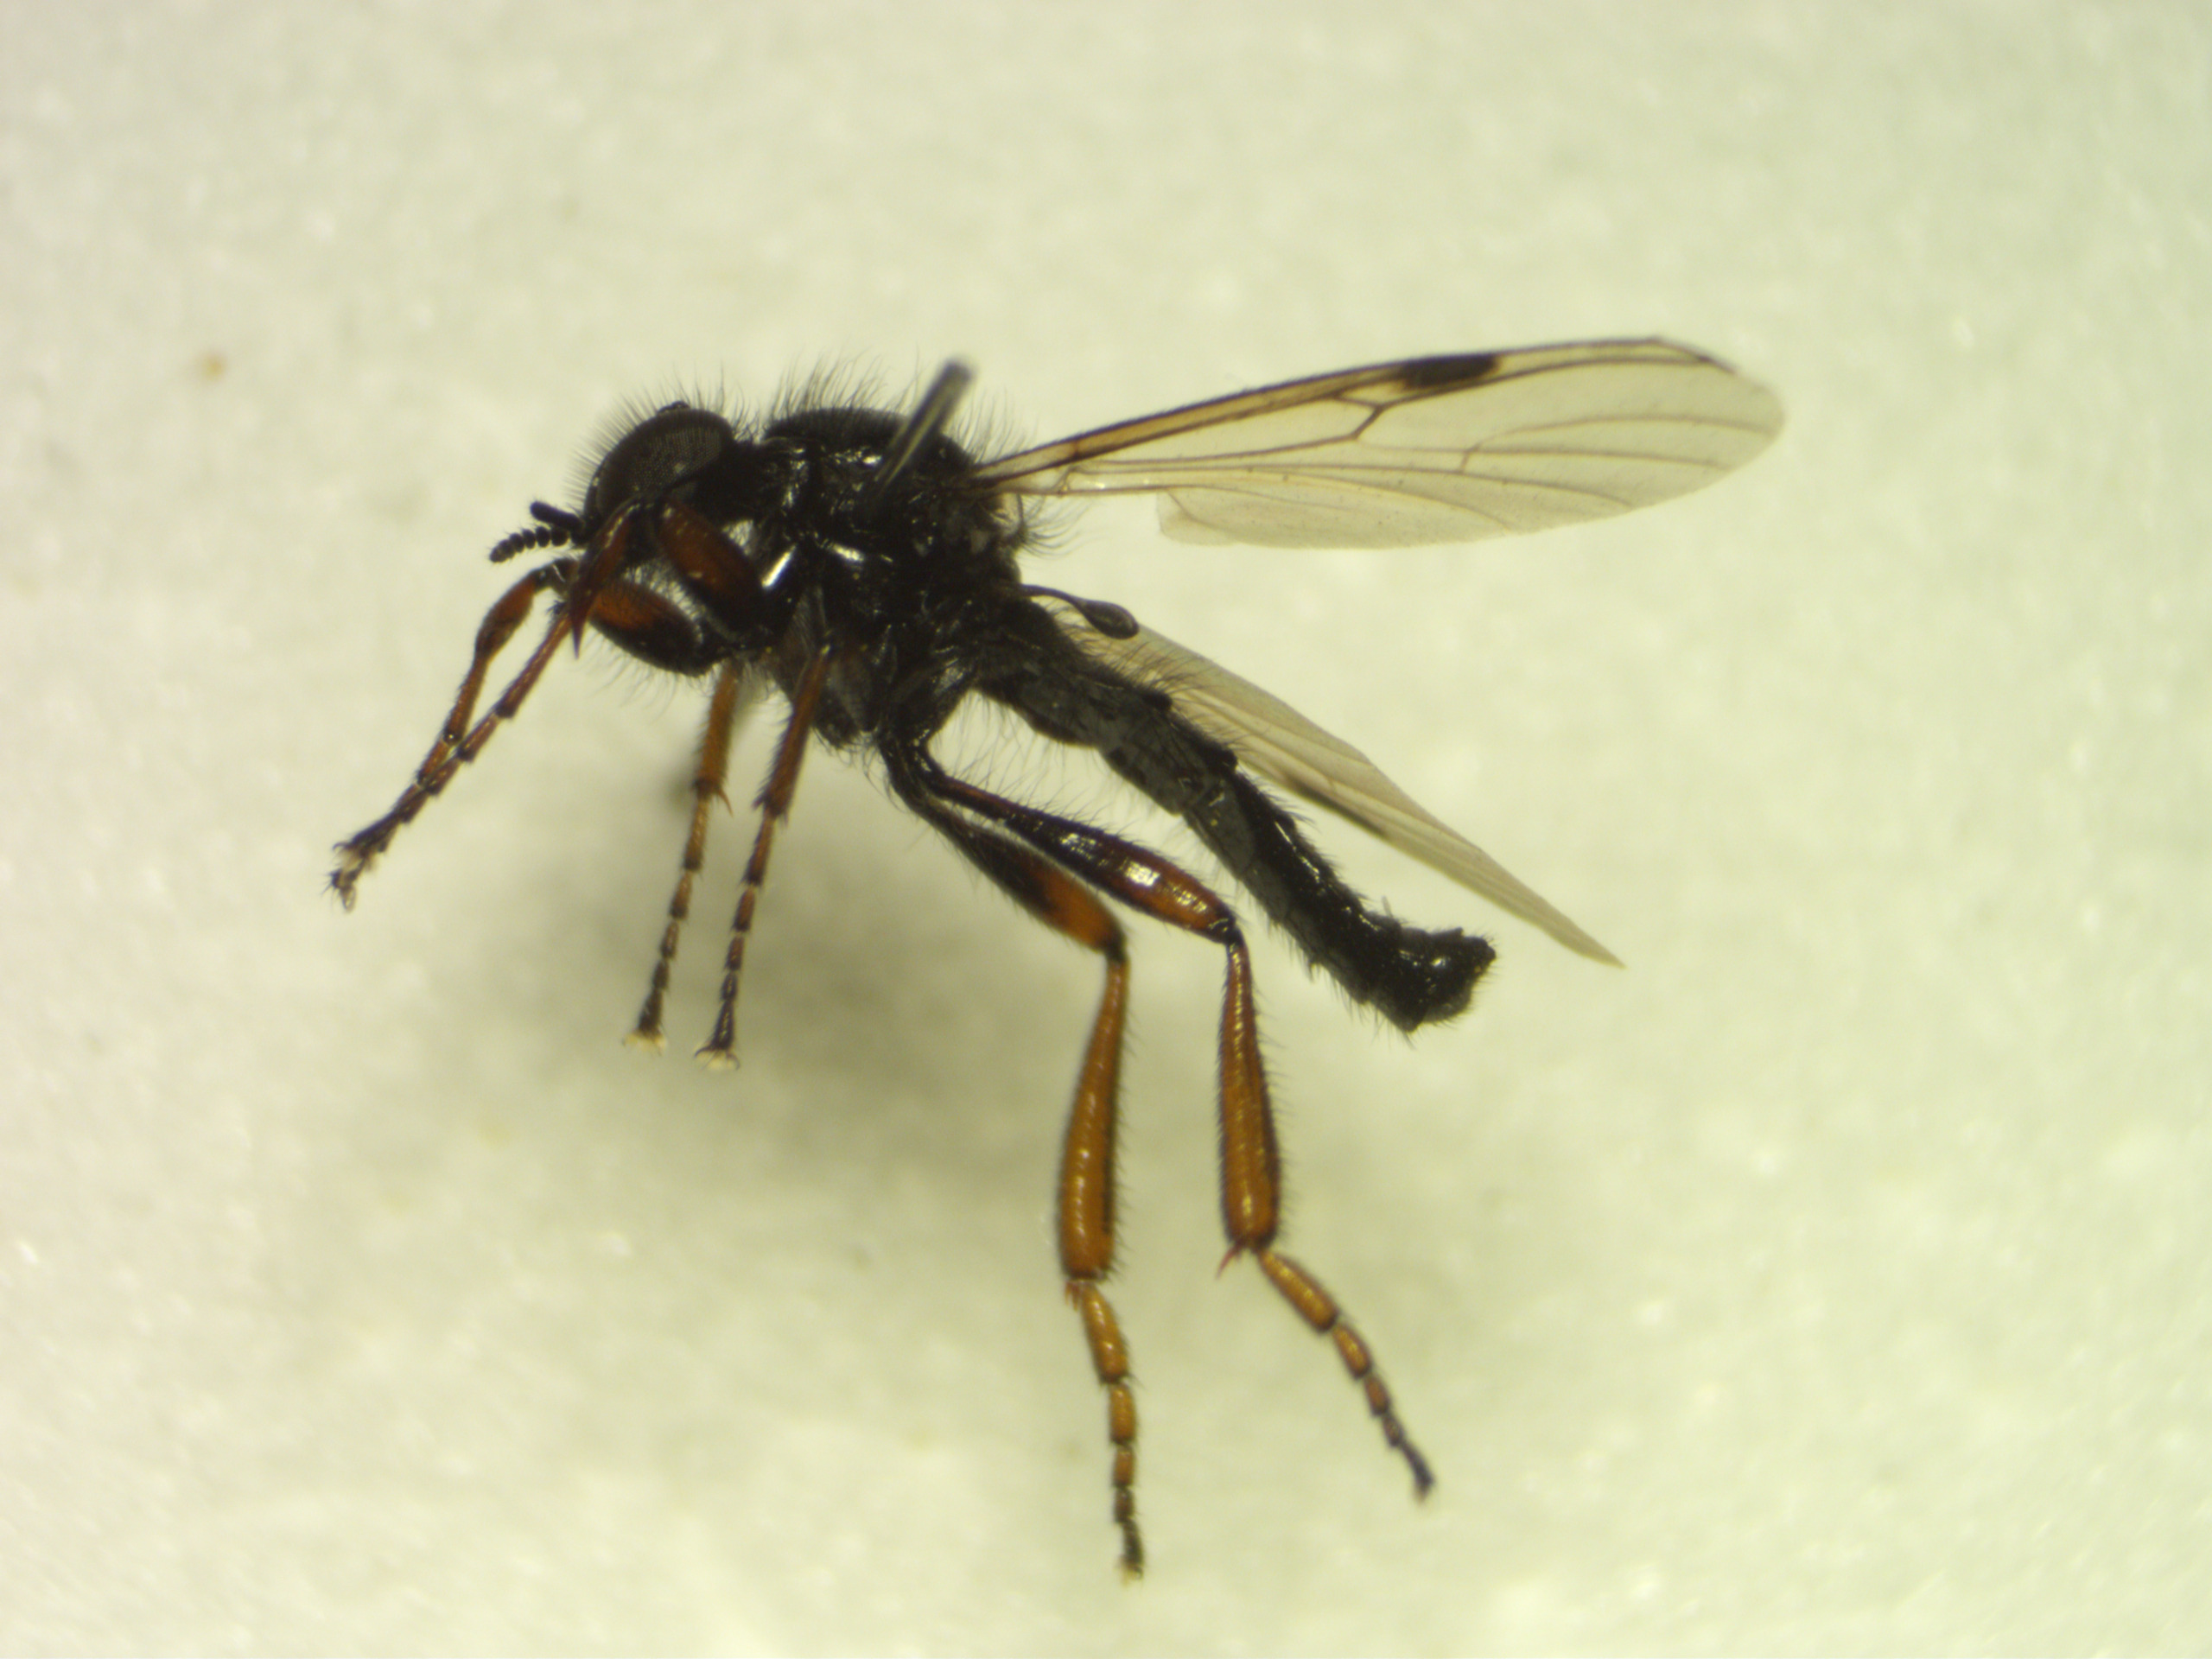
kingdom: Animalia
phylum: Arthropoda
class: Insecta
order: Diptera
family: Bibionidae
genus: Bibio
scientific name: Bibio johannis
